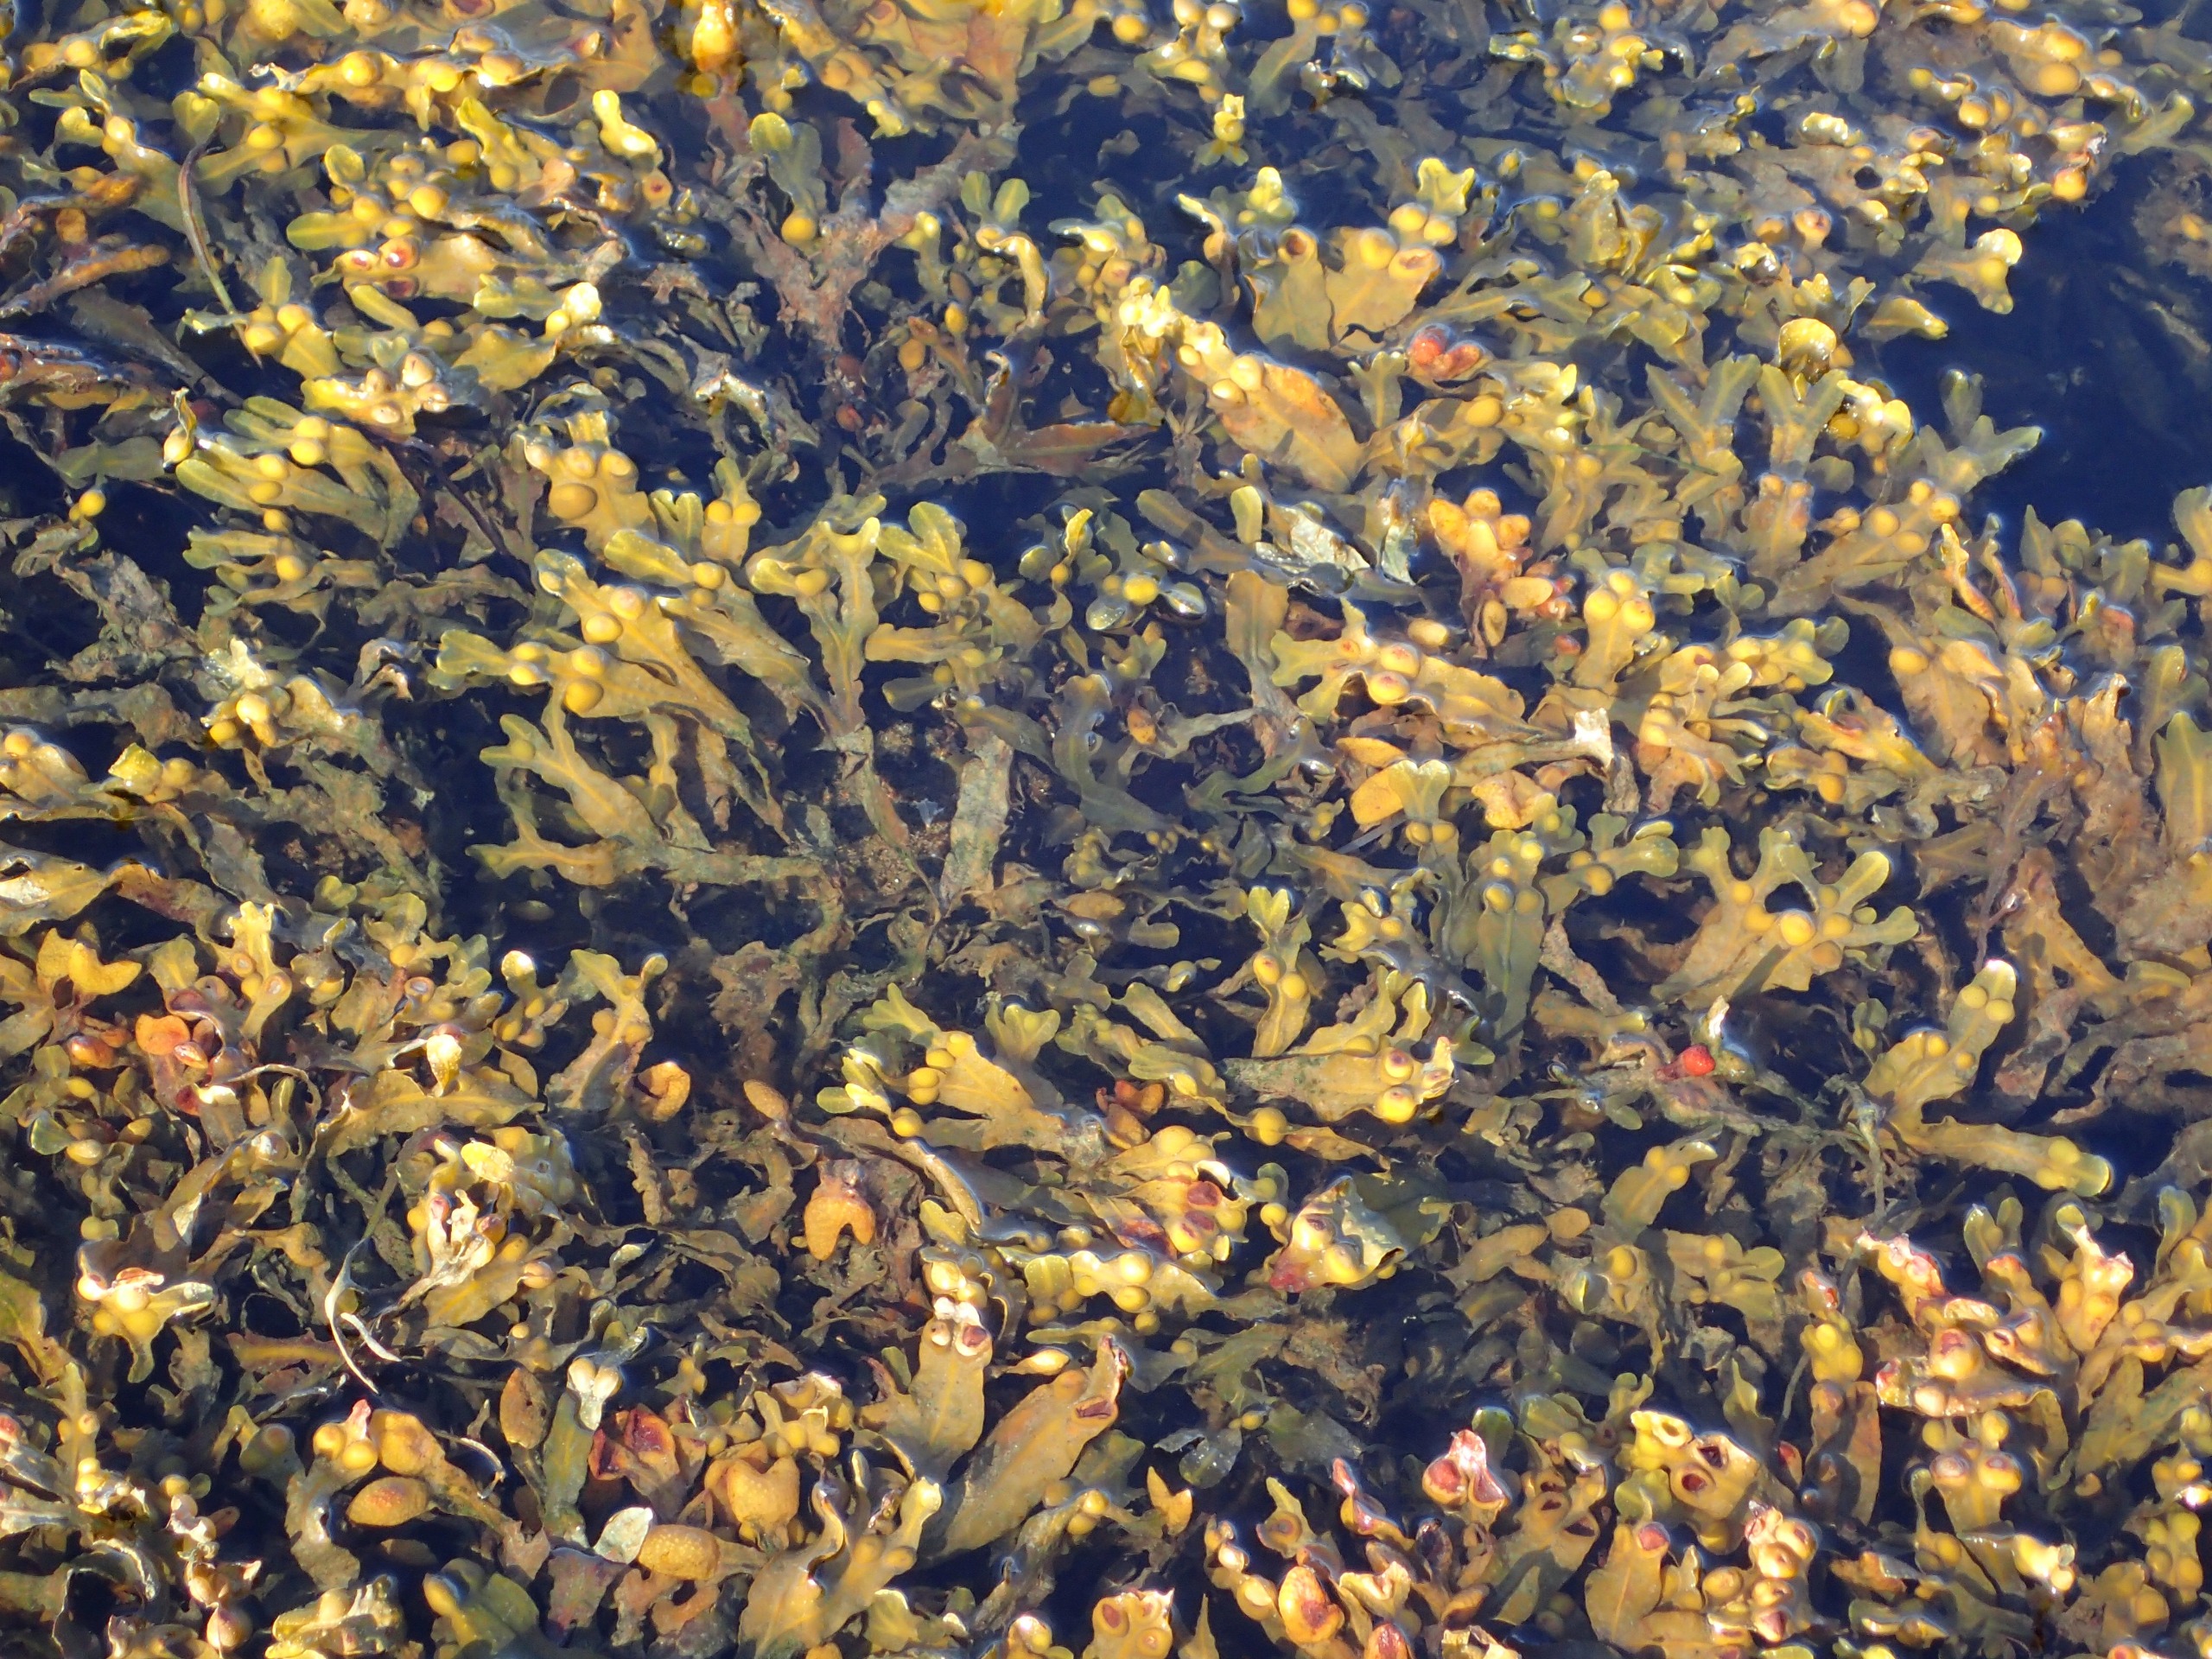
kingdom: Chromista
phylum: Ochrophyta
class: Phaeophyceae
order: Fucales
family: Fucaceae
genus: Fucus
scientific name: Fucus vesiculosus
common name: Blæretang
